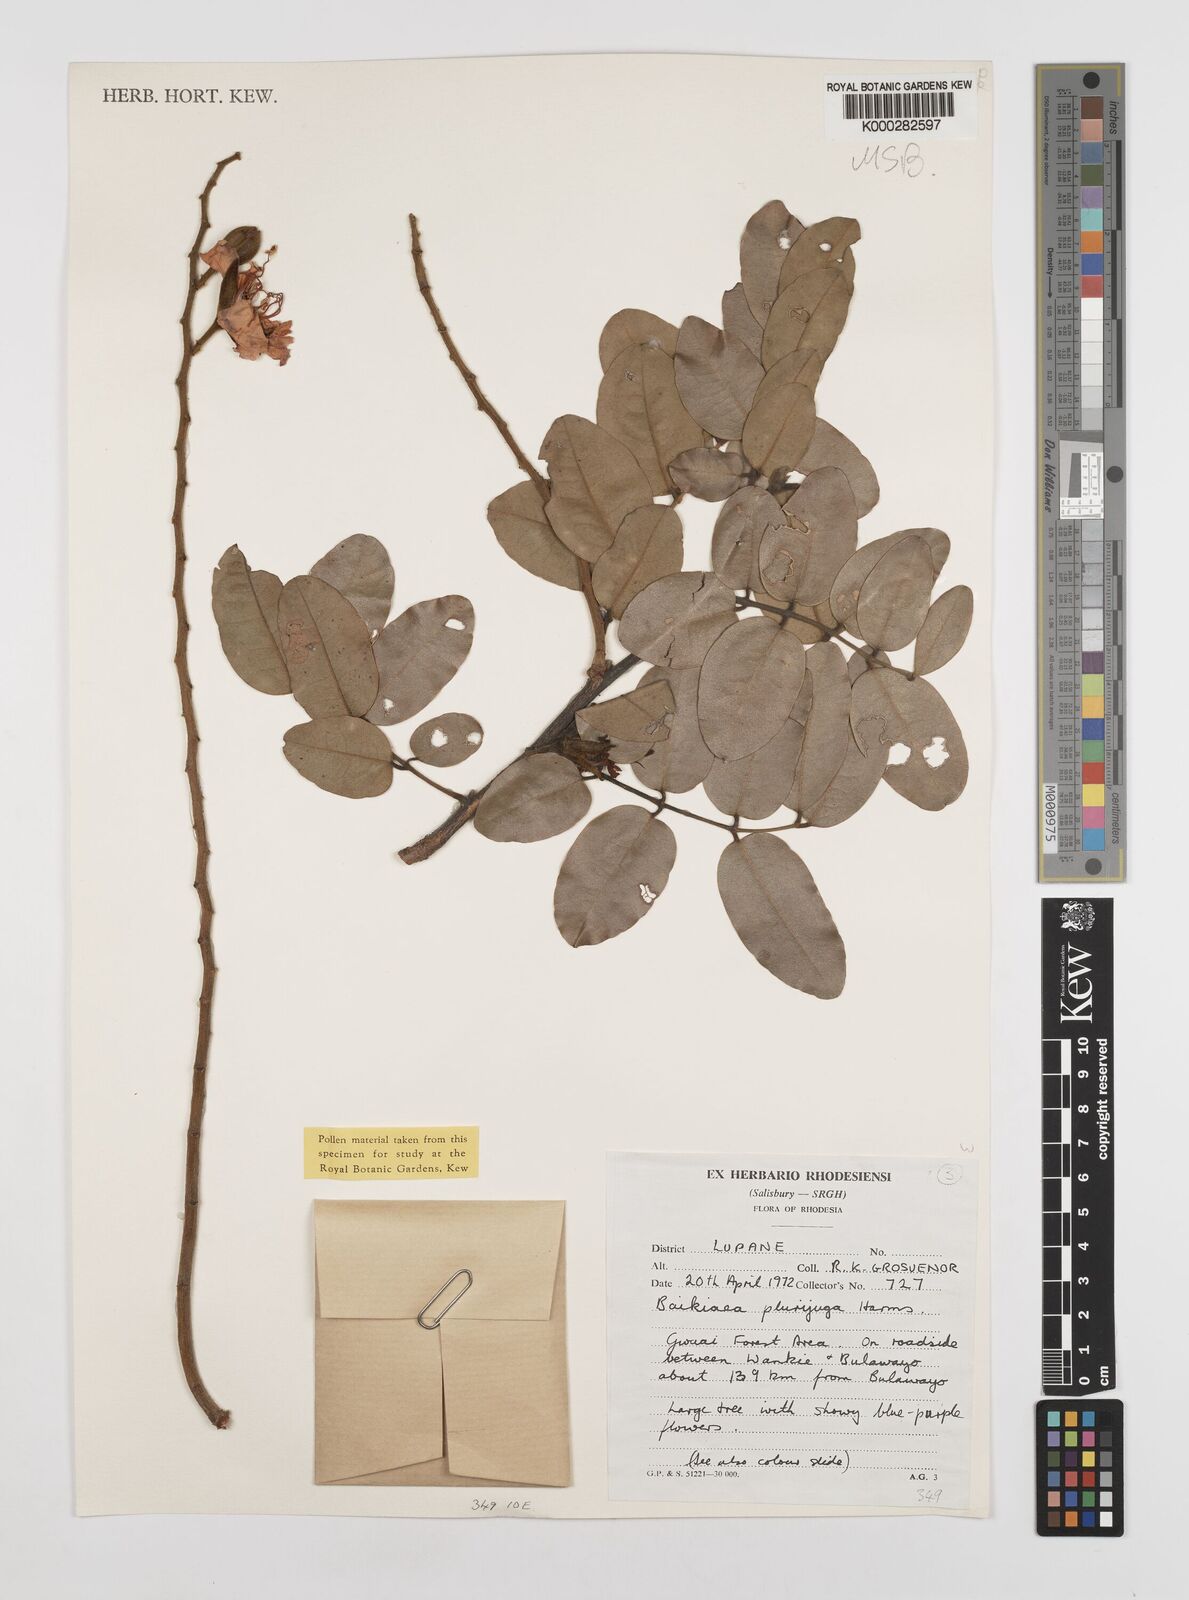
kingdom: Plantae
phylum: Tracheophyta
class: Magnoliopsida
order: Fabales
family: Fabaceae
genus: Baikiaea
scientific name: Baikiaea plurijuga
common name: Rhodesian-teak
